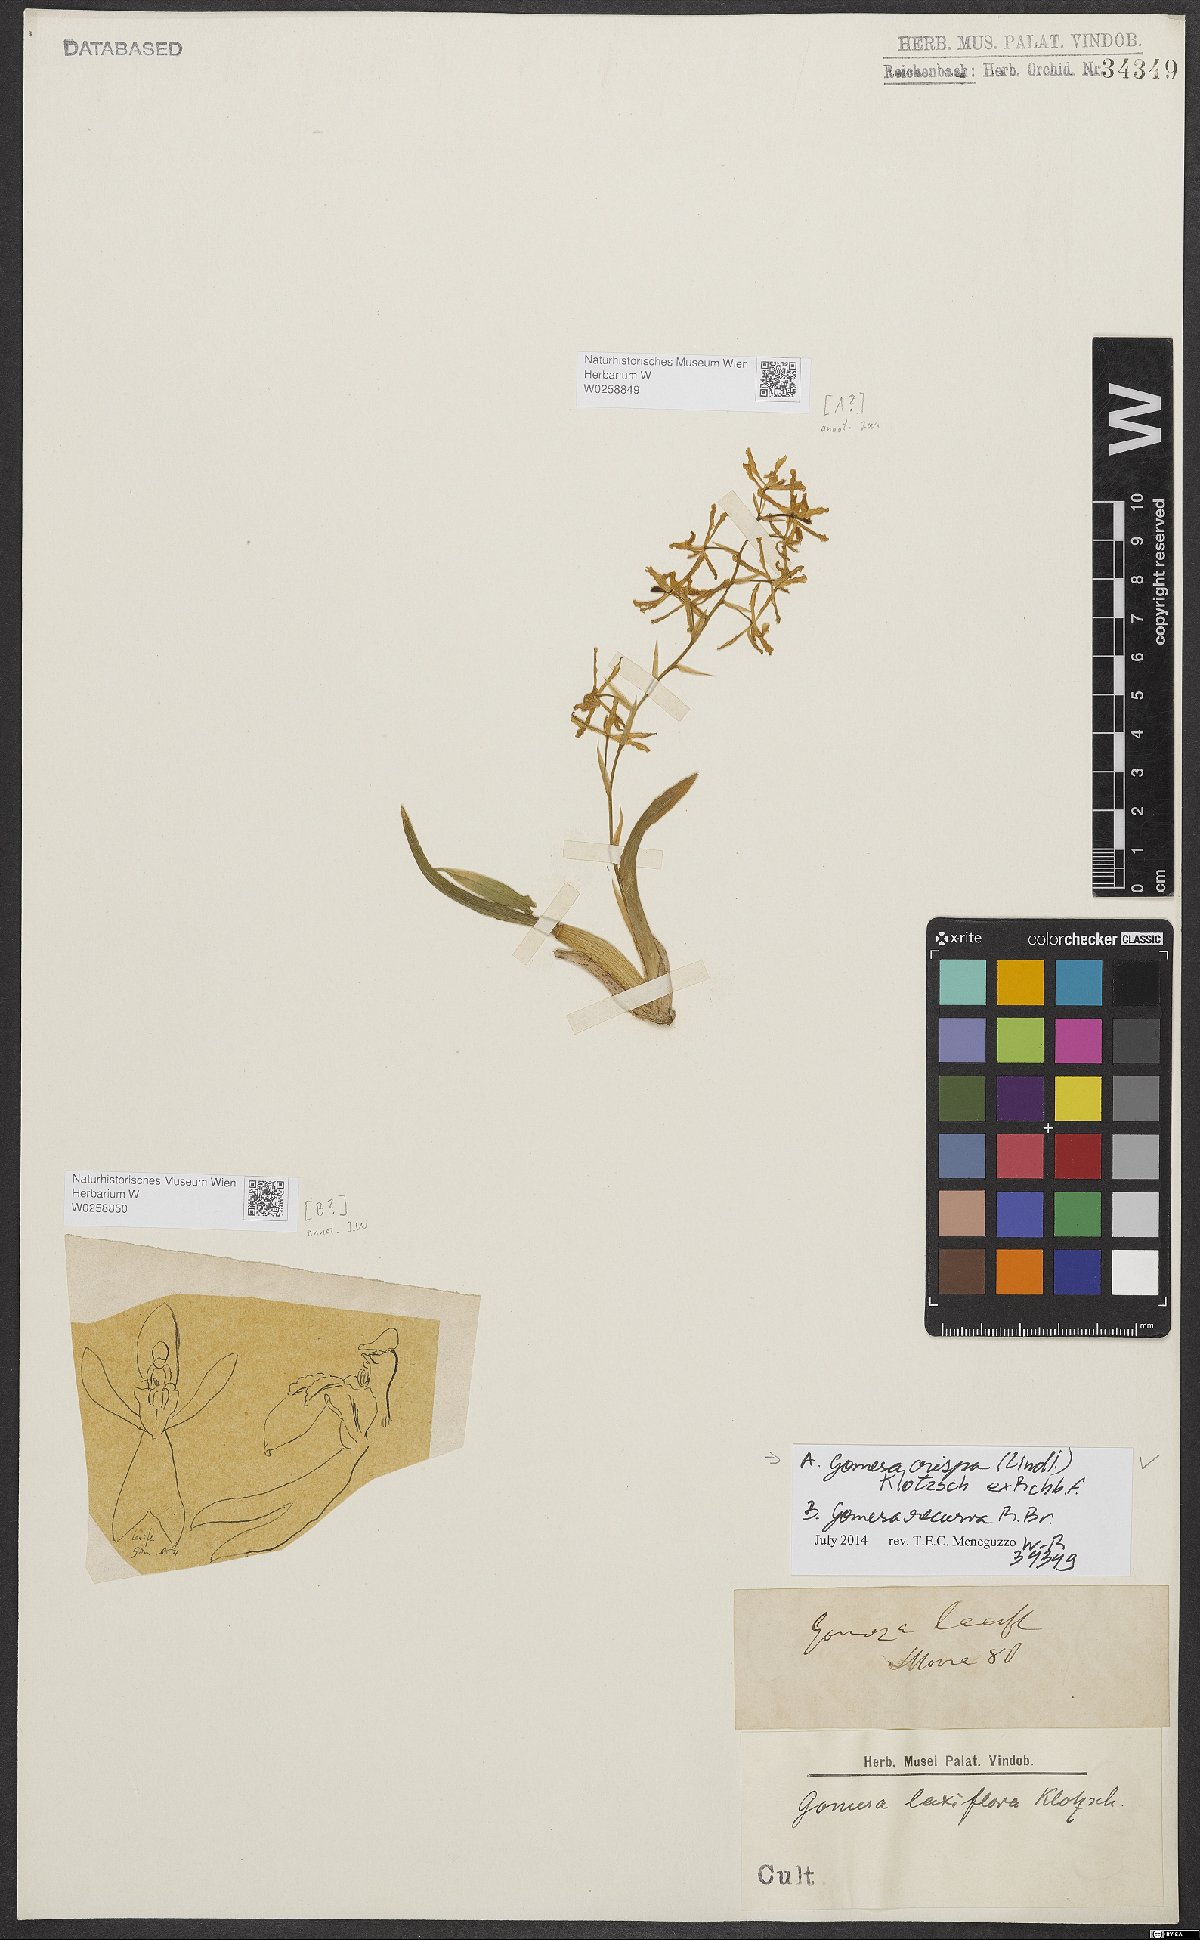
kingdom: Plantae
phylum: Tracheophyta
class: Liliopsida
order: Asparagales
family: Orchidaceae
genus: Gomesa
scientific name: Gomesa recurva
